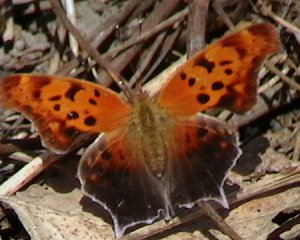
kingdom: Animalia
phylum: Arthropoda
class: Insecta
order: Lepidoptera
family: Nymphalidae
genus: Polygonia
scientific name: Polygonia interrogationis
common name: Question Mark
